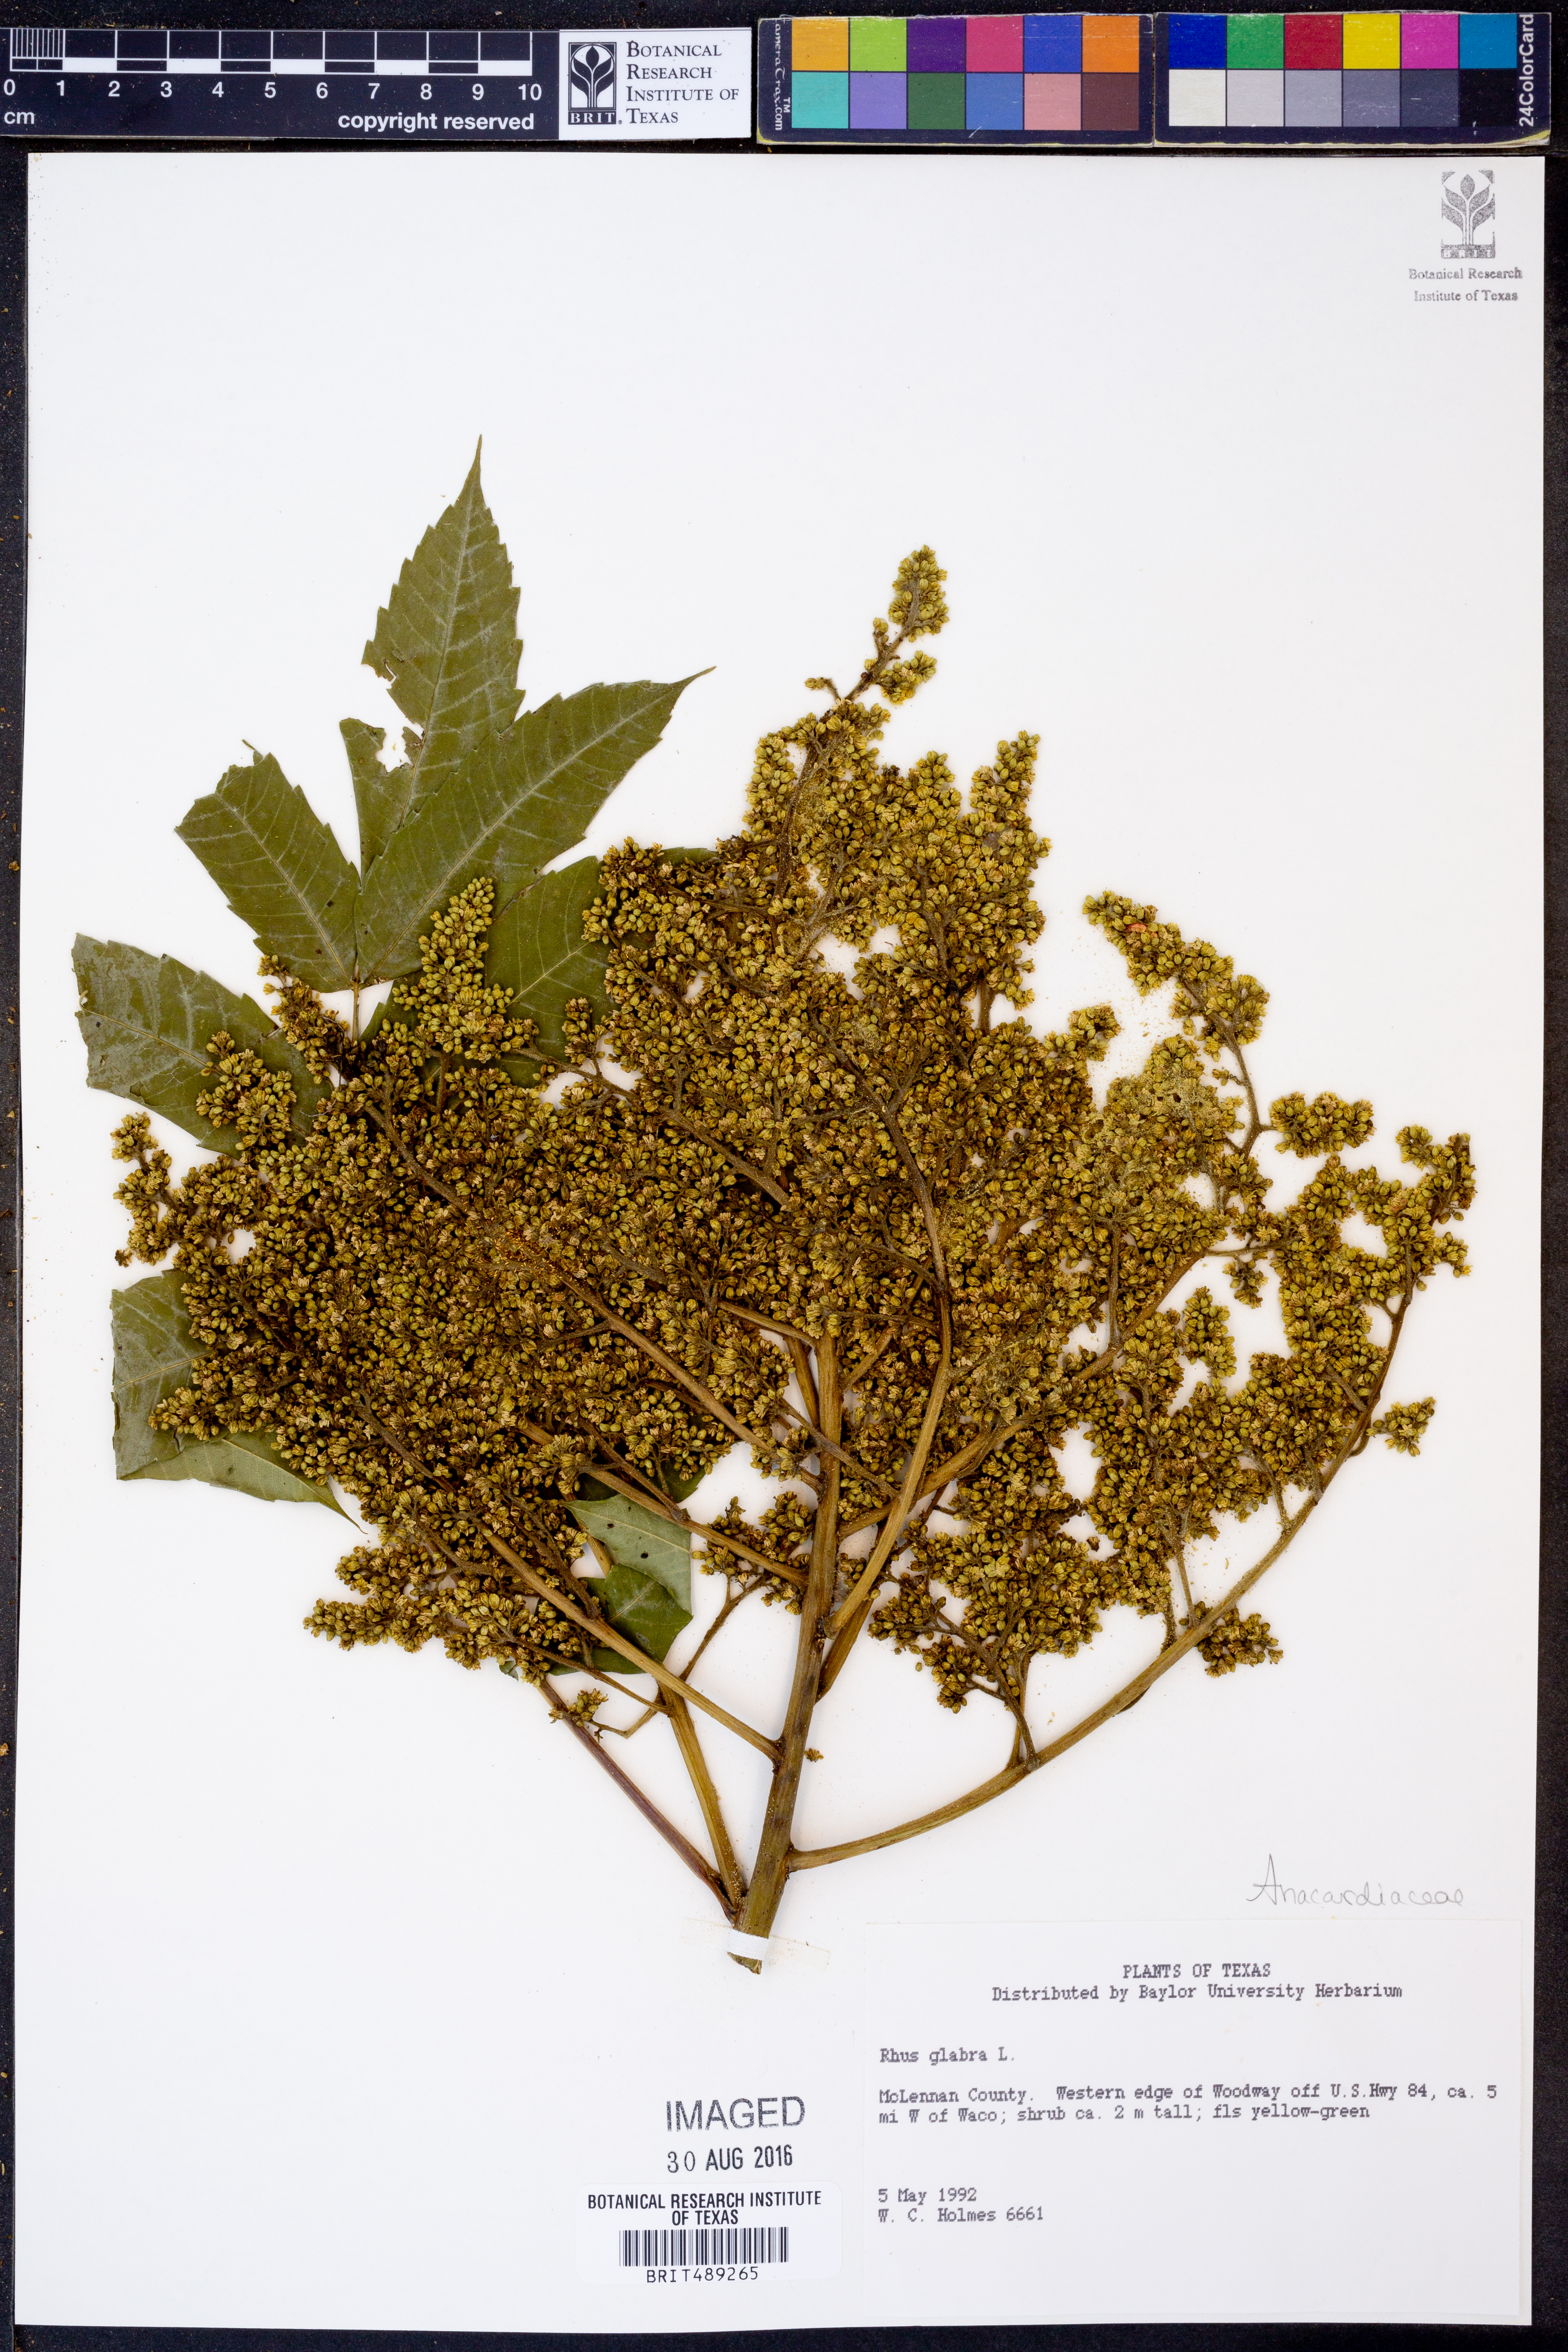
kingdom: Plantae
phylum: Tracheophyta
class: Magnoliopsida
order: Sapindales
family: Anacardiaceae
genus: Rhus
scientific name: Rhus glabra
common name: Scarlet sumac
